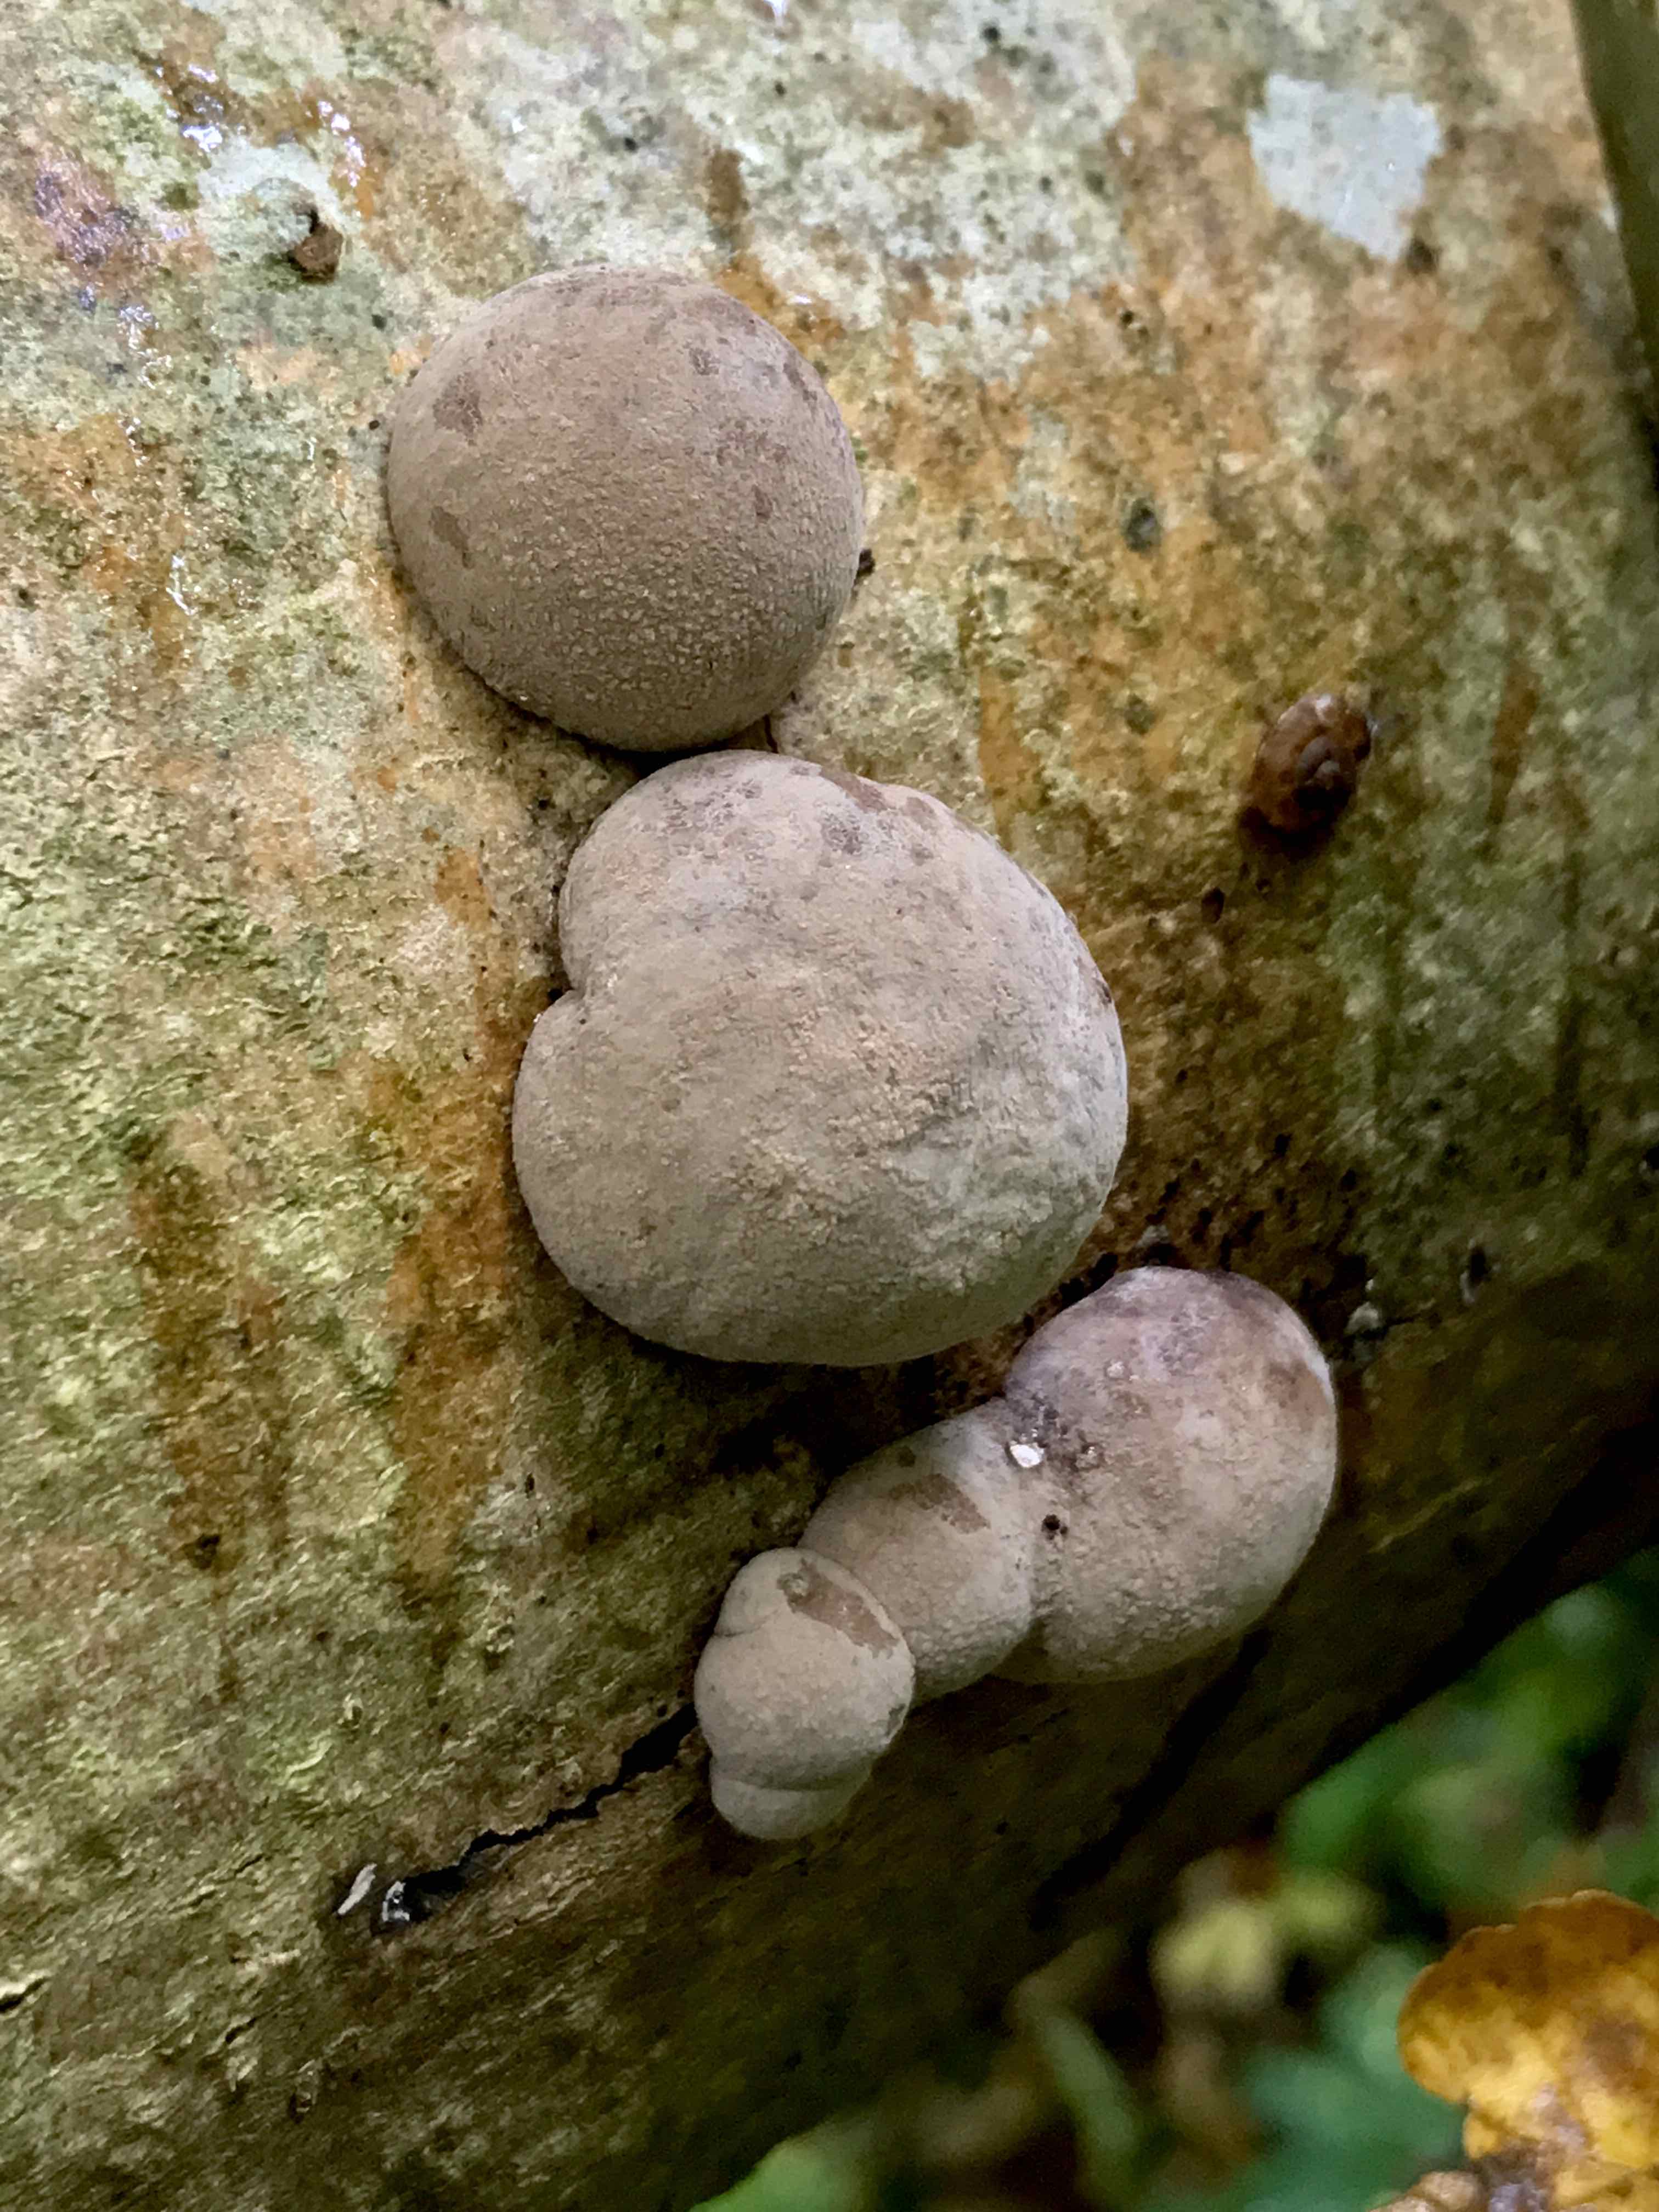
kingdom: Fungi
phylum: Ascomycota
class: Sordariomycetes
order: Xylariales
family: Hypoxylaceae
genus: Daldinia
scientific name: Daldinia concentrica
